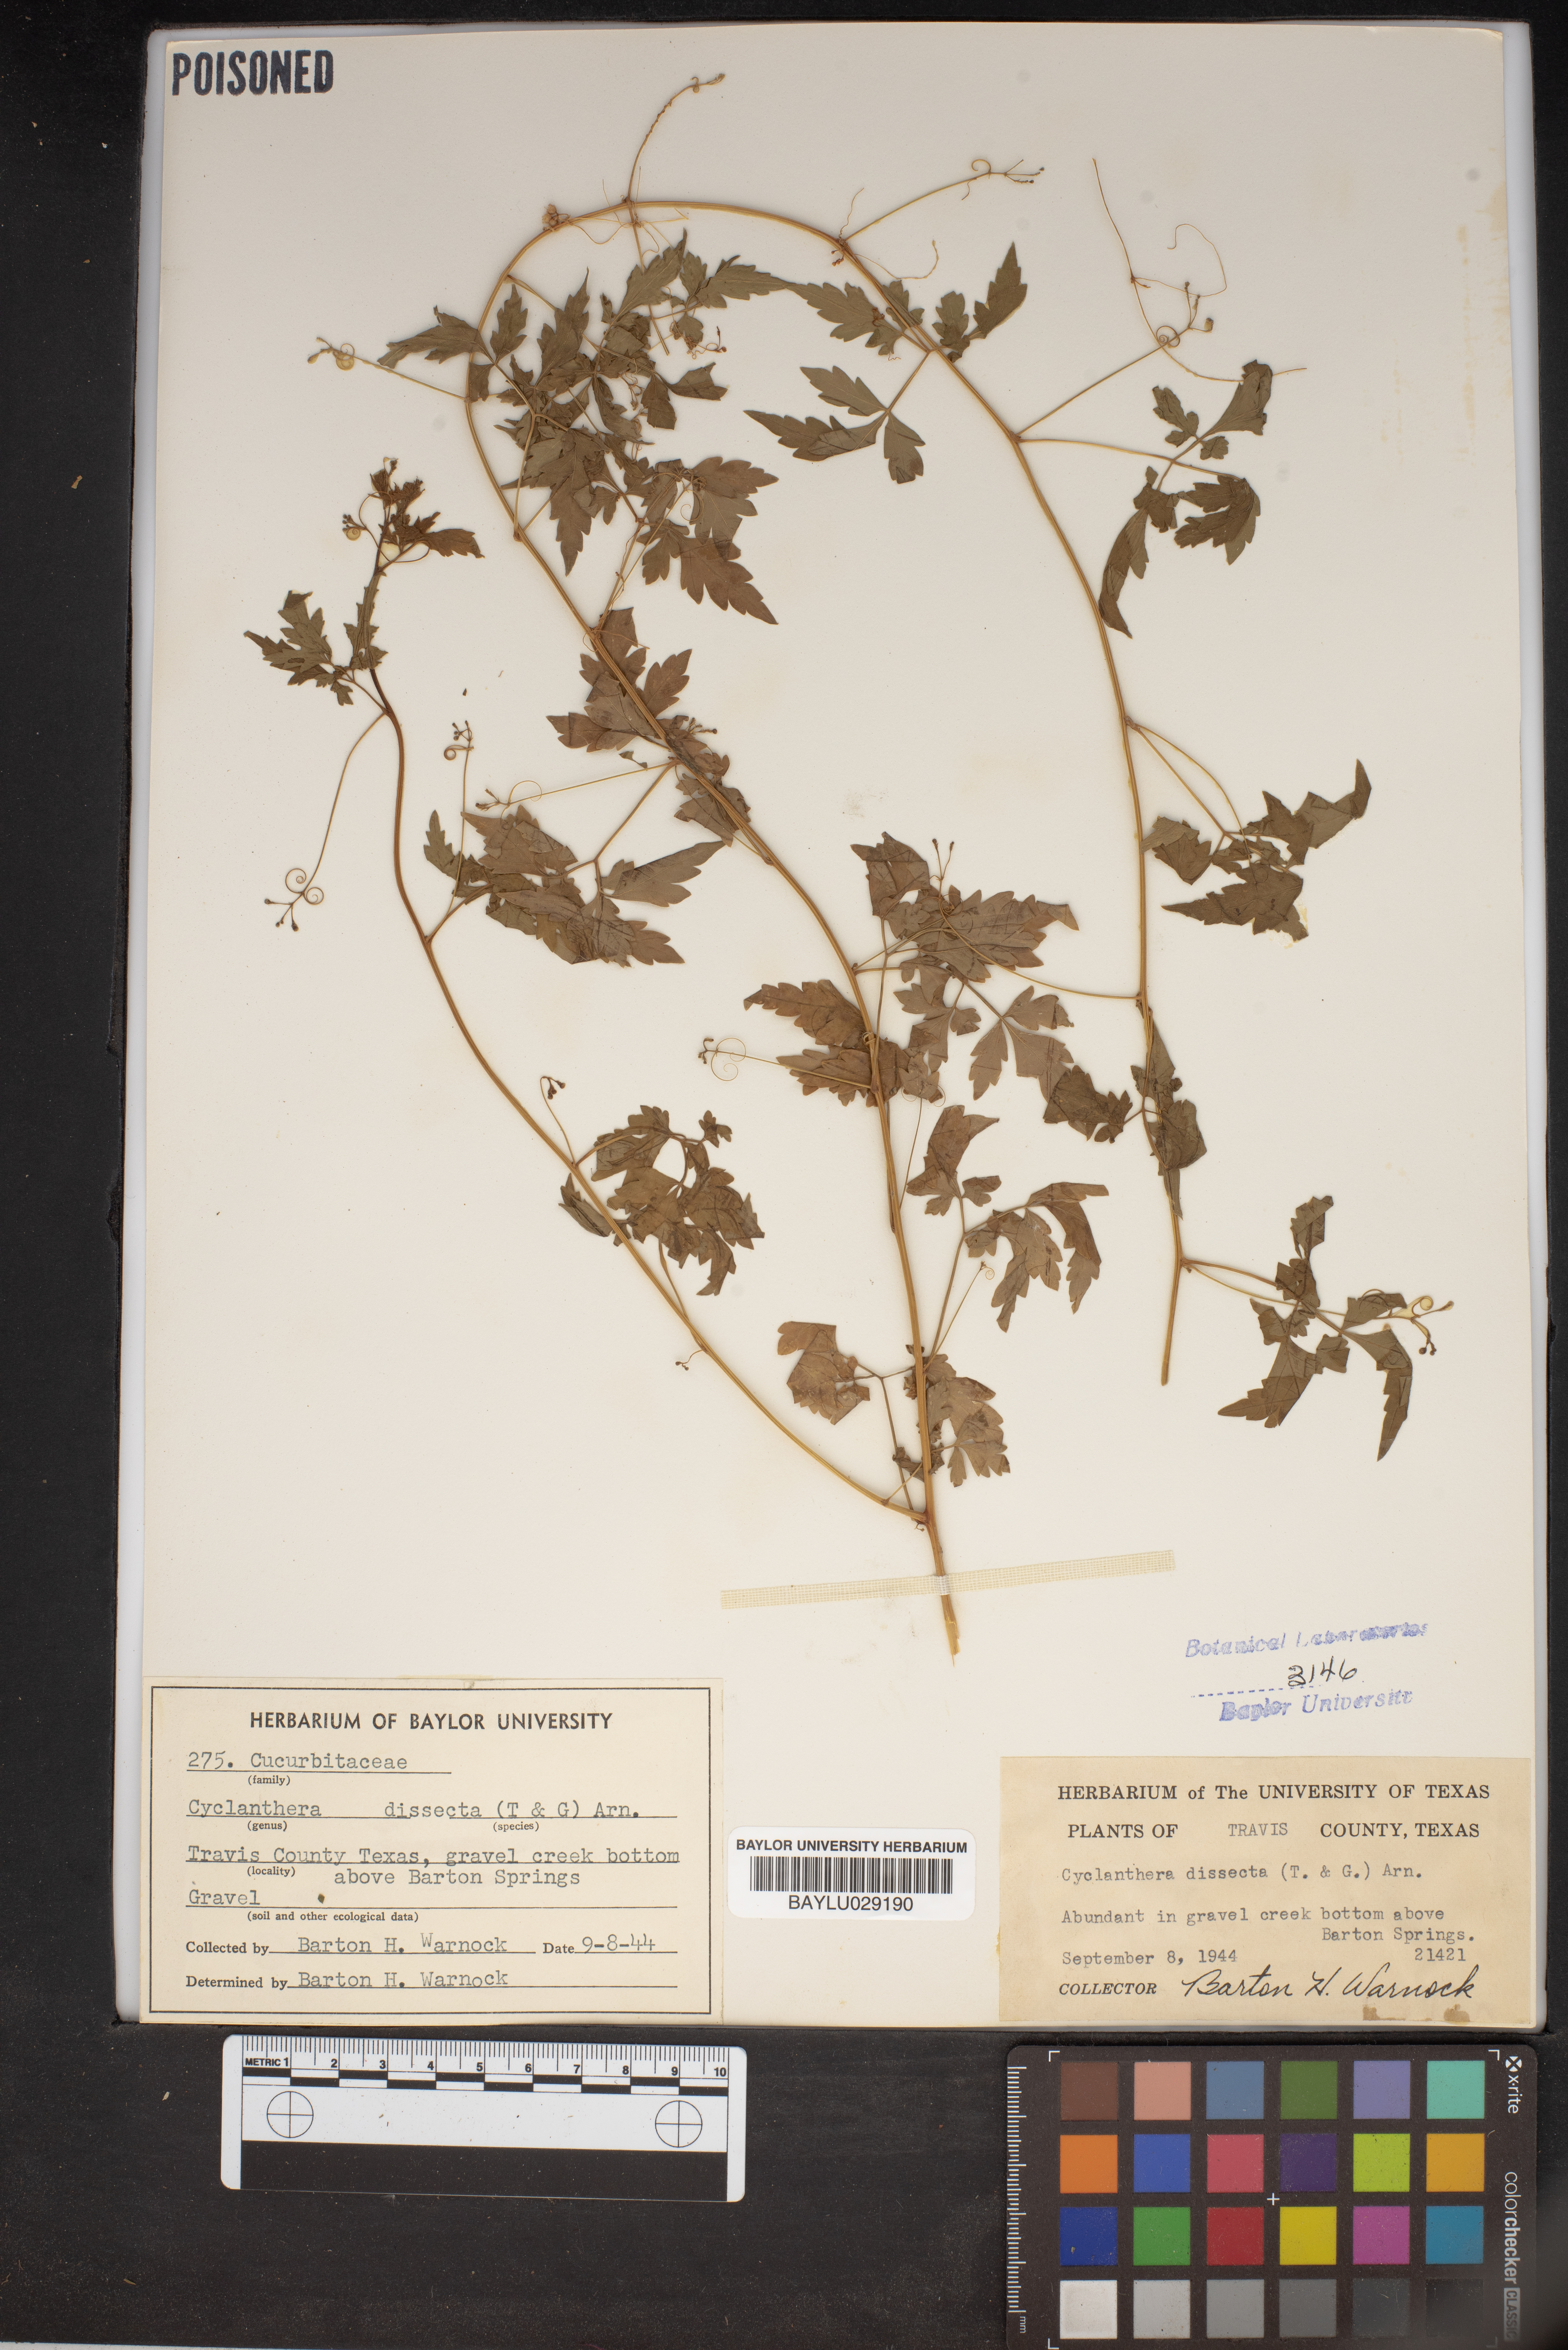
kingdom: Plantae
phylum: Tracheophyta
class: Magnoliopsida
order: Cucurbitales
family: Cucurbitaceae
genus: Cyclanthera
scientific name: Cyclanthera dissecta
